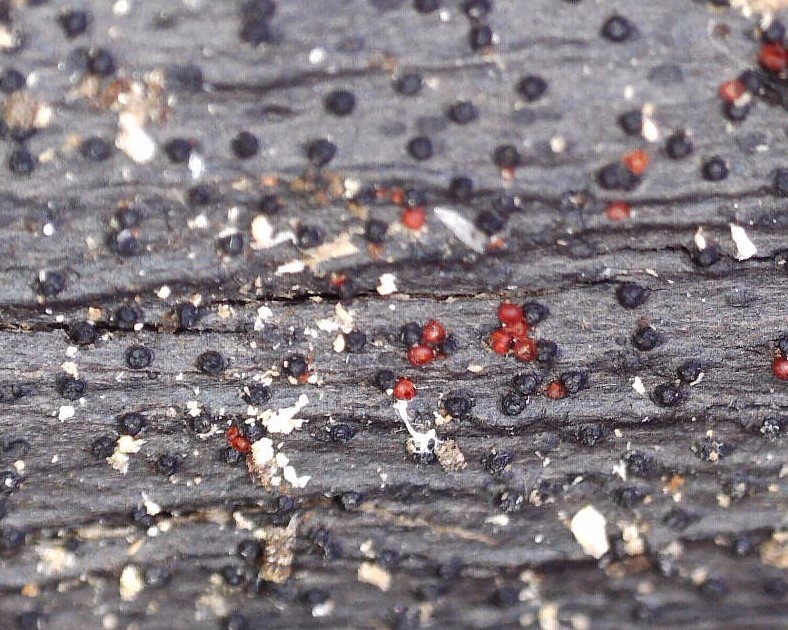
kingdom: Fungi
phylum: Ascomycota
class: Sordariomycetes
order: Hypocreales
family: Nectriaceae
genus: Dialonectria
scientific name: Dialonectria episphaeria
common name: kulskorpe-cinnobersvamp
